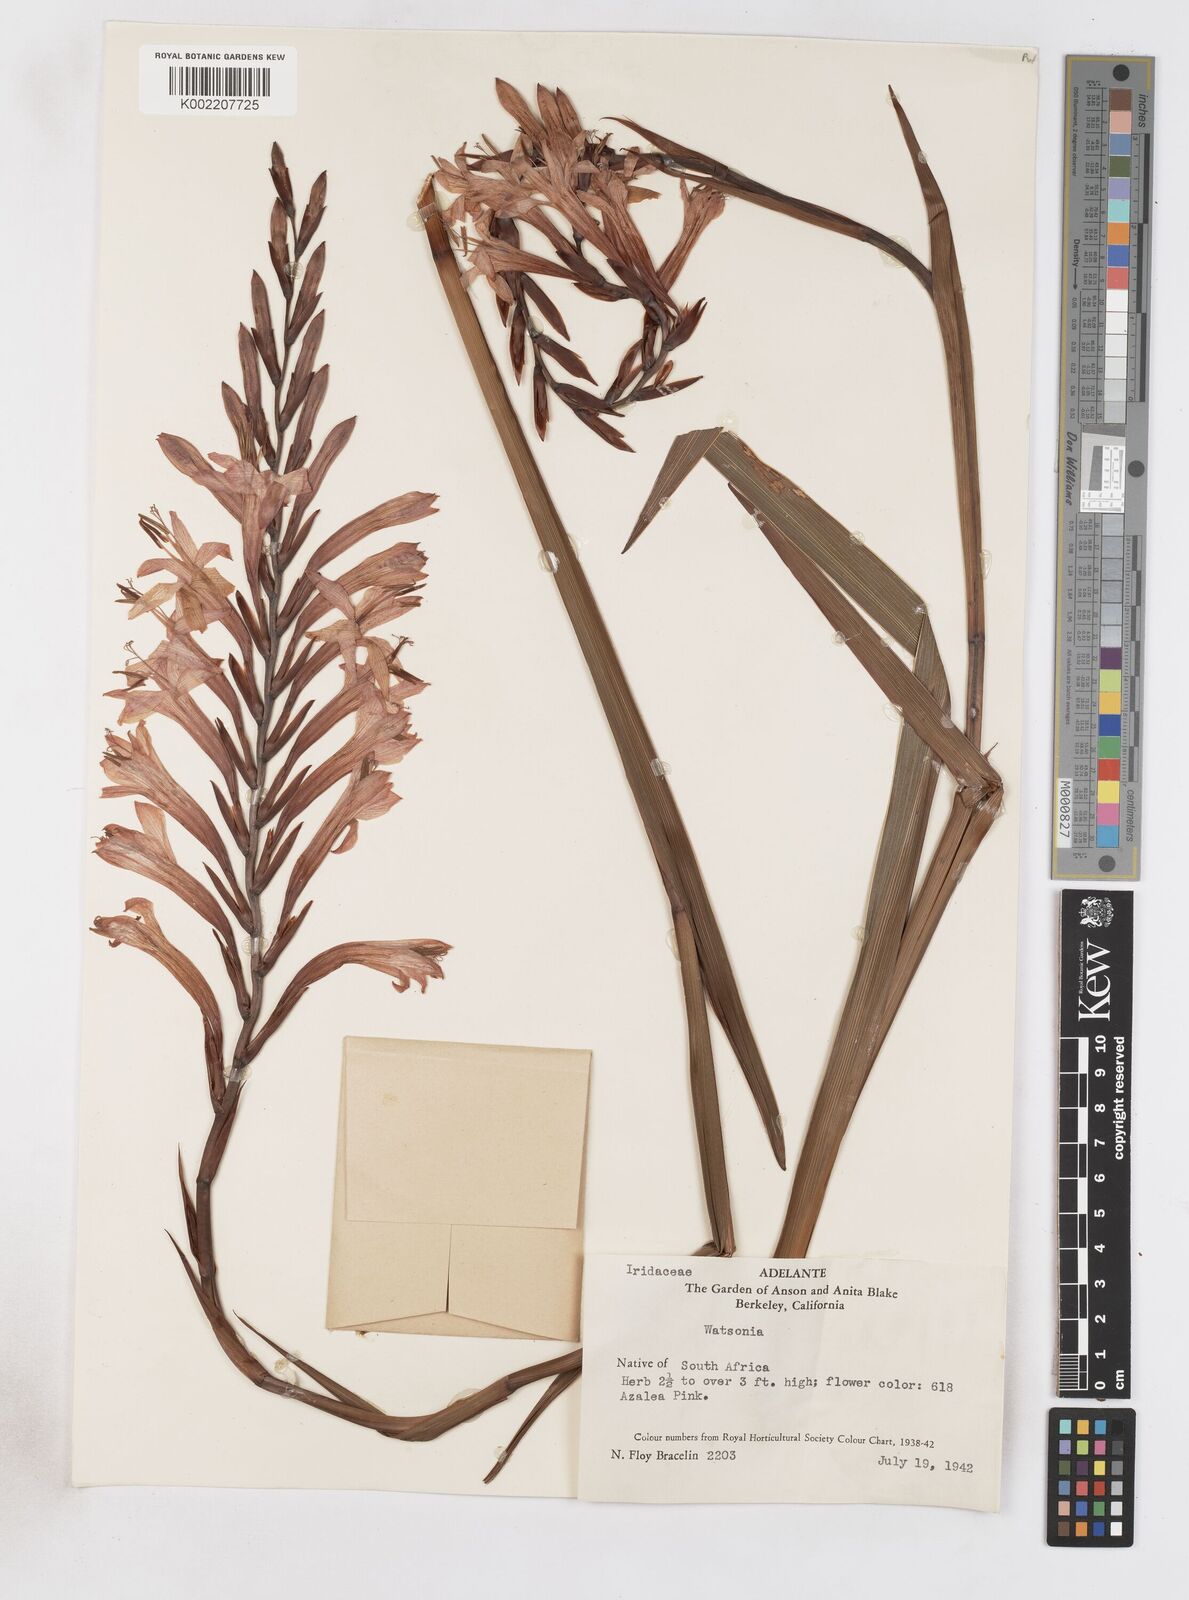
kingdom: Plantae
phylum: Tracheophyta
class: Liliopsida
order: Asparagales
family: Iridaceae
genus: Watsonia
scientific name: Watsonia
